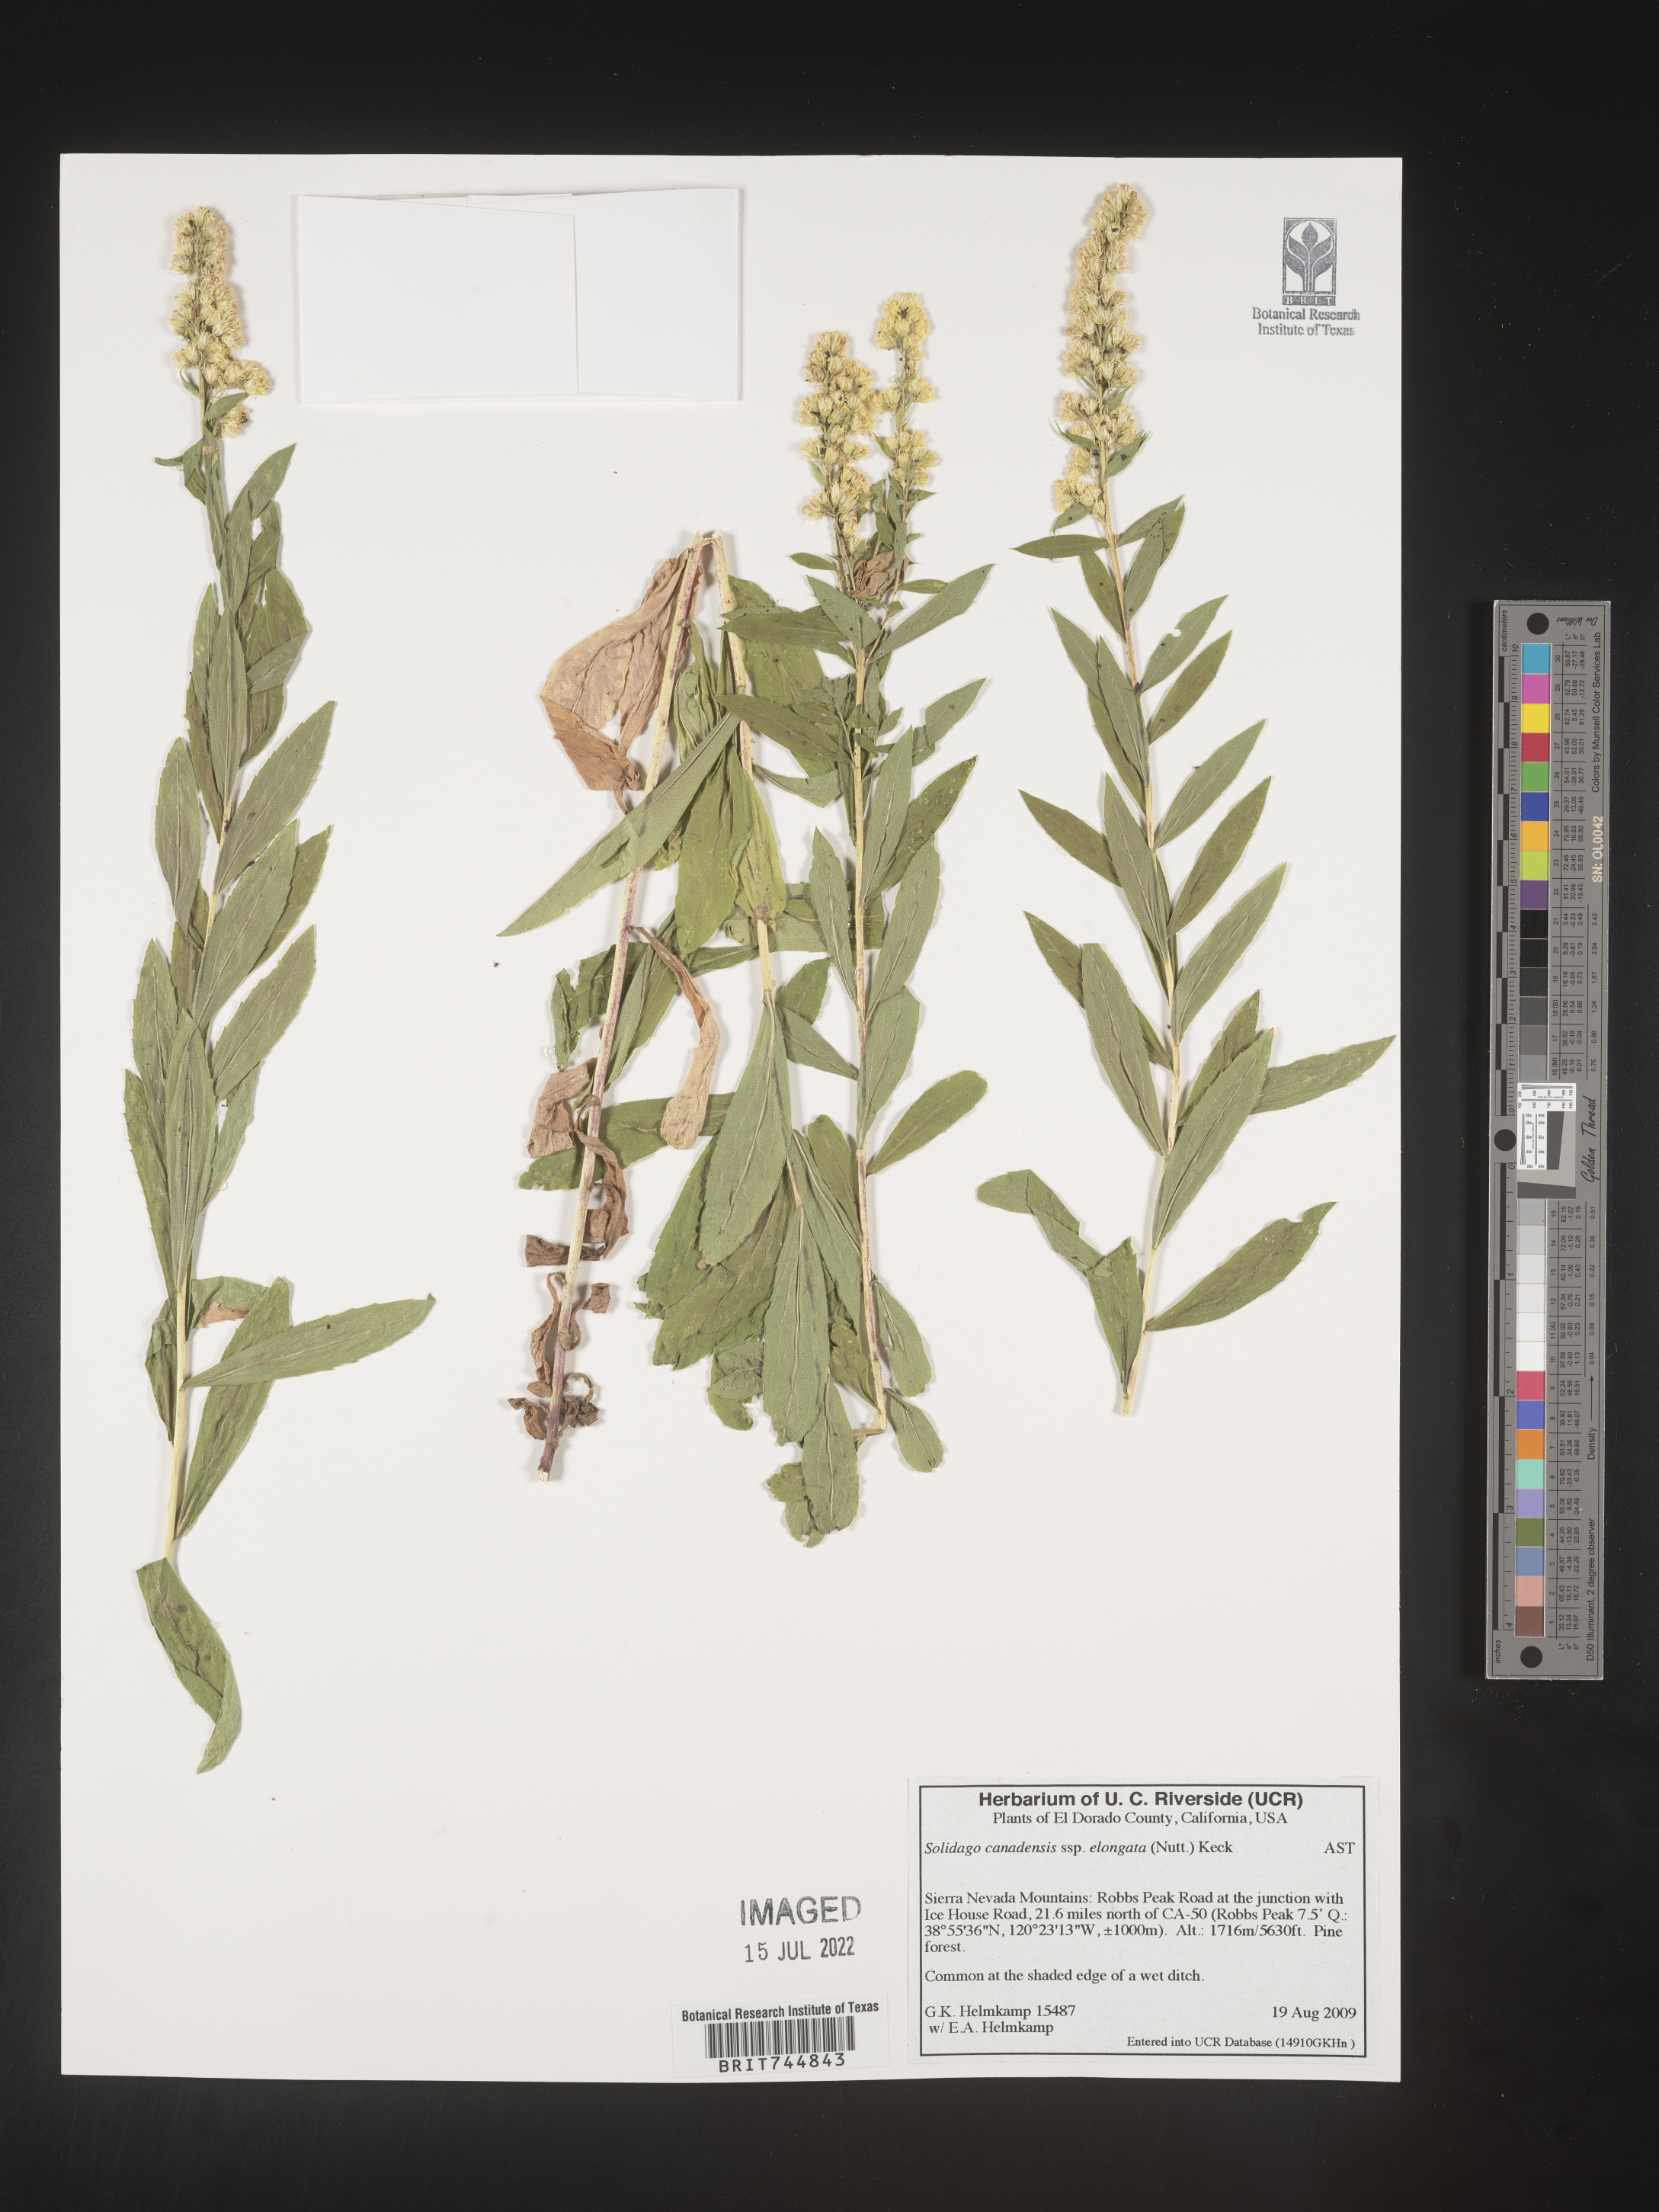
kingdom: Plantae
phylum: Tracheophyta
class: Magnoliopsida
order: Asterales
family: Asteraceae
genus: Solidago
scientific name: Solidago canadensis
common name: Canada goldenrod
